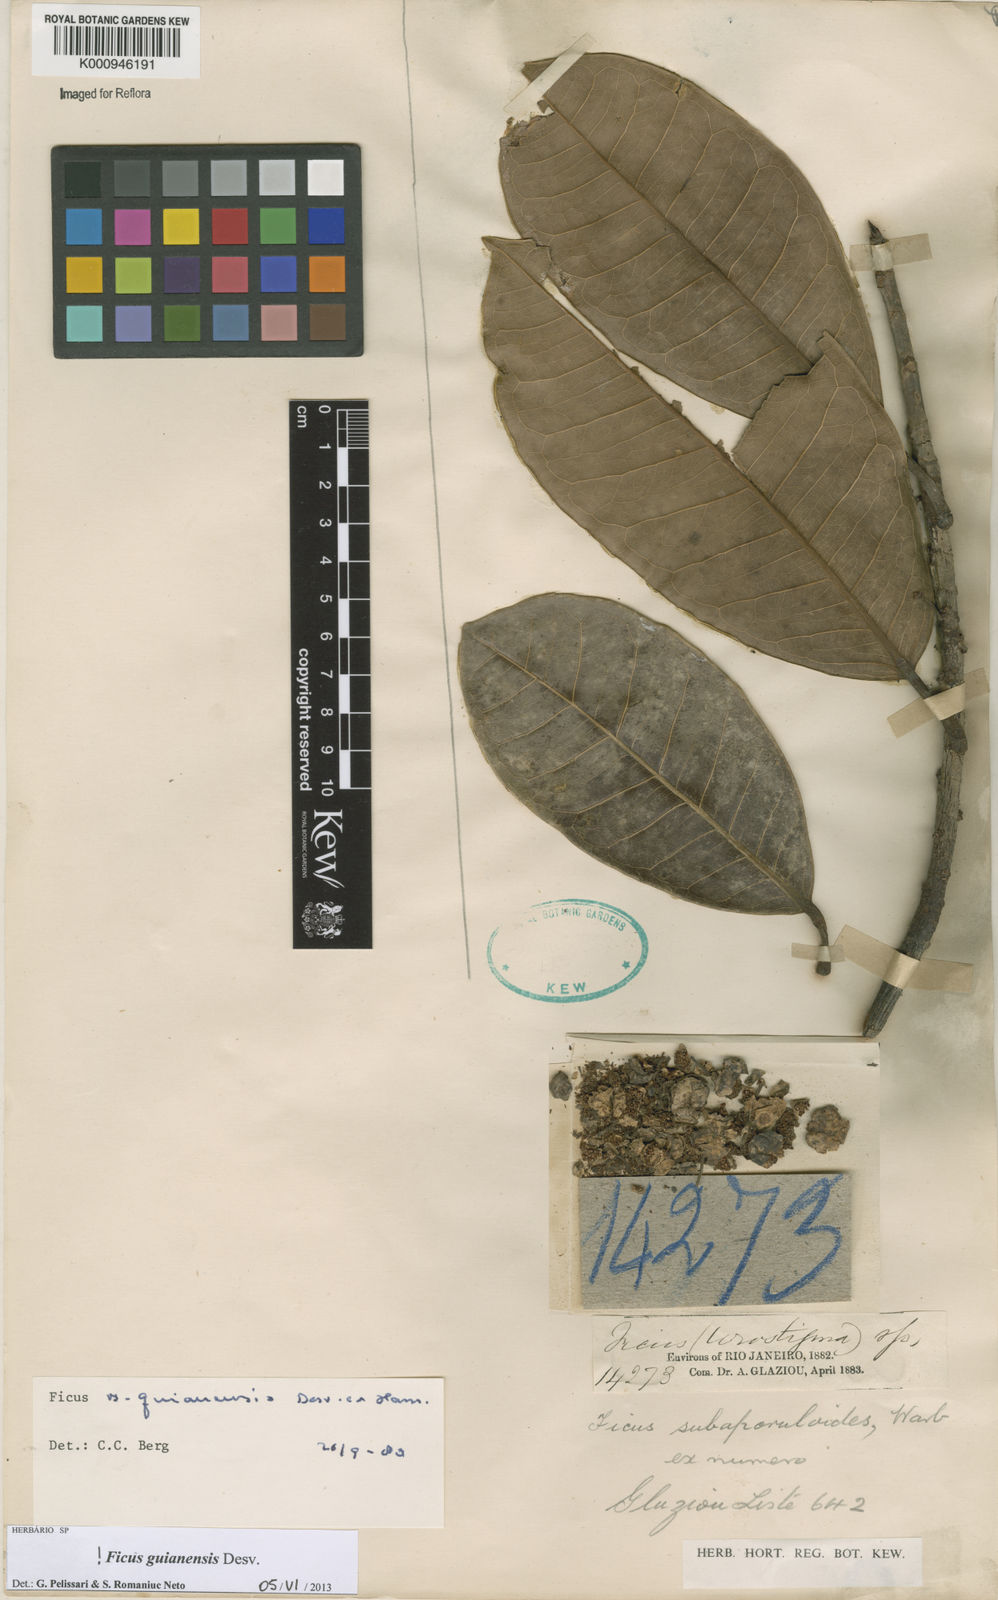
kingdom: Plantae
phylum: Tracheophyta
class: Magnoliopsida
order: Rosales
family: Moraceae
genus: Ficus
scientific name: Ficus americana
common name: Jamaican cherry fig
